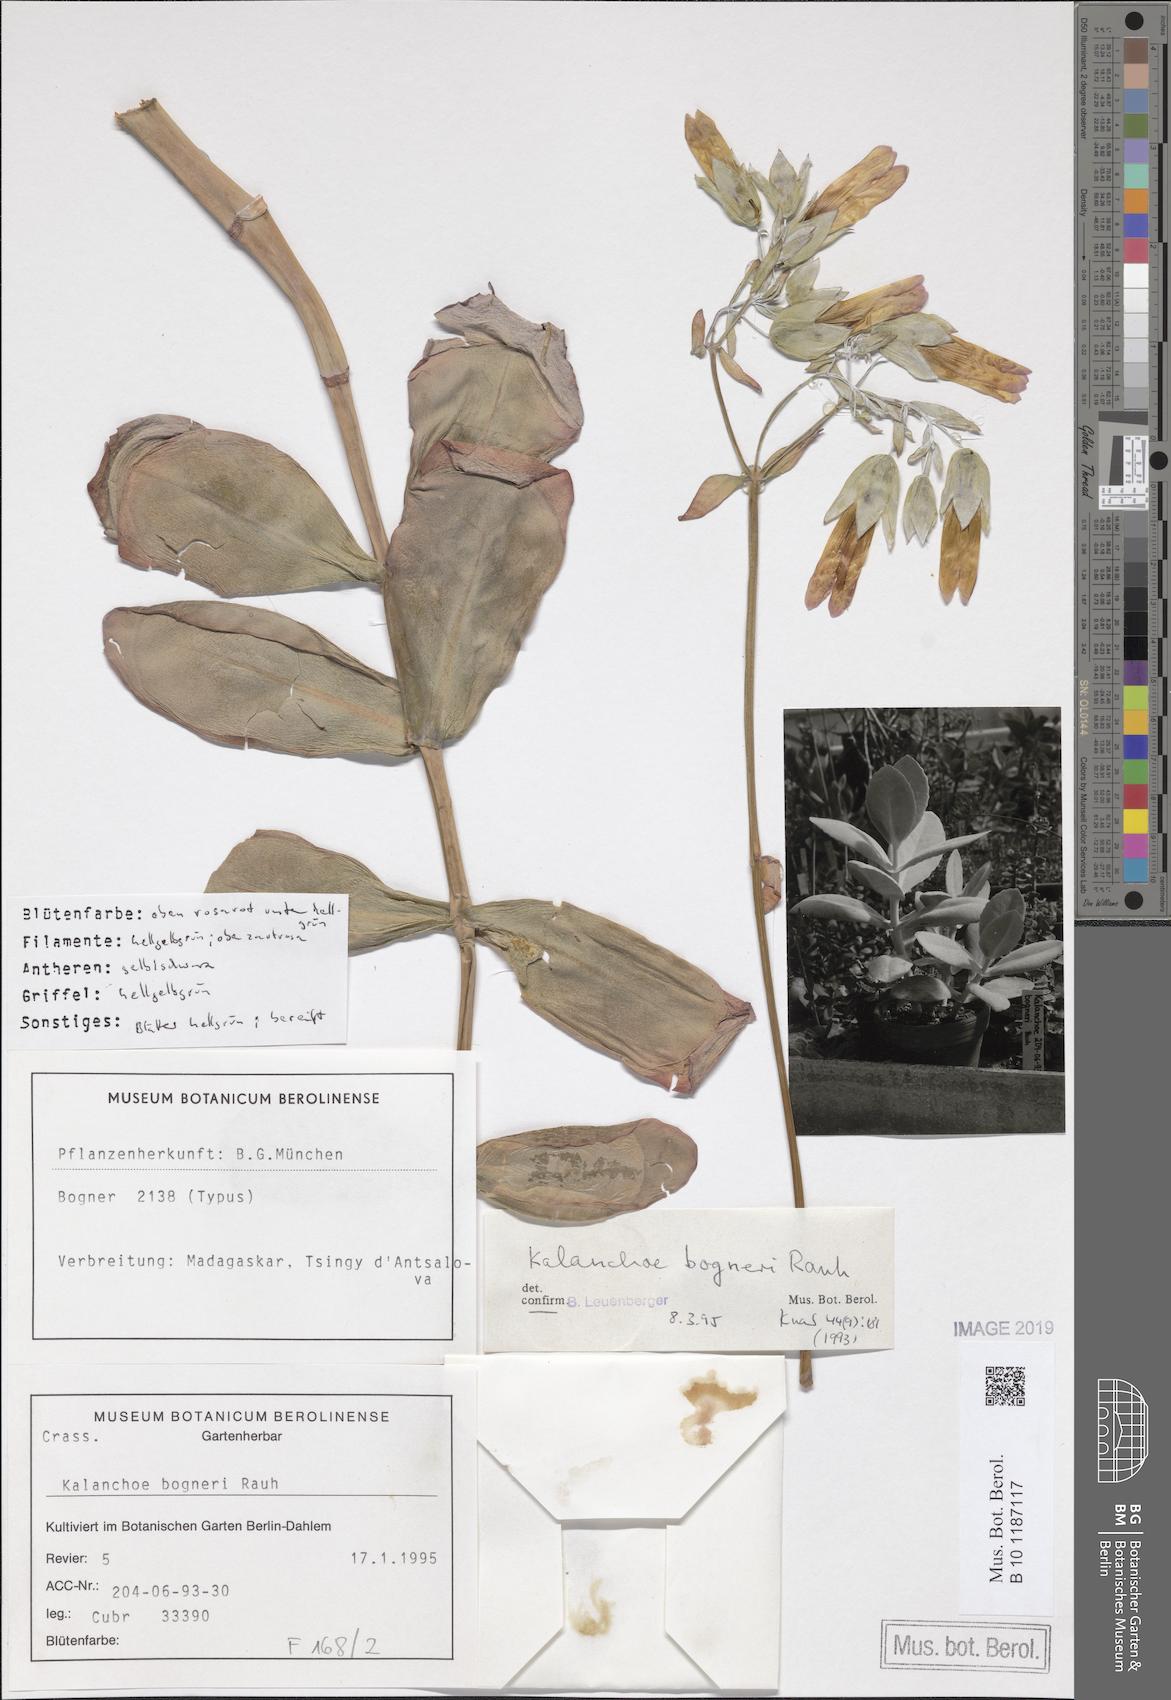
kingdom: Plantae
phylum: Tracheophyta
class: Magnoliopsida
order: Saxifragales
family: Crassulaceae
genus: Kalanchoe
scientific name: Kalanchoe bogneri
